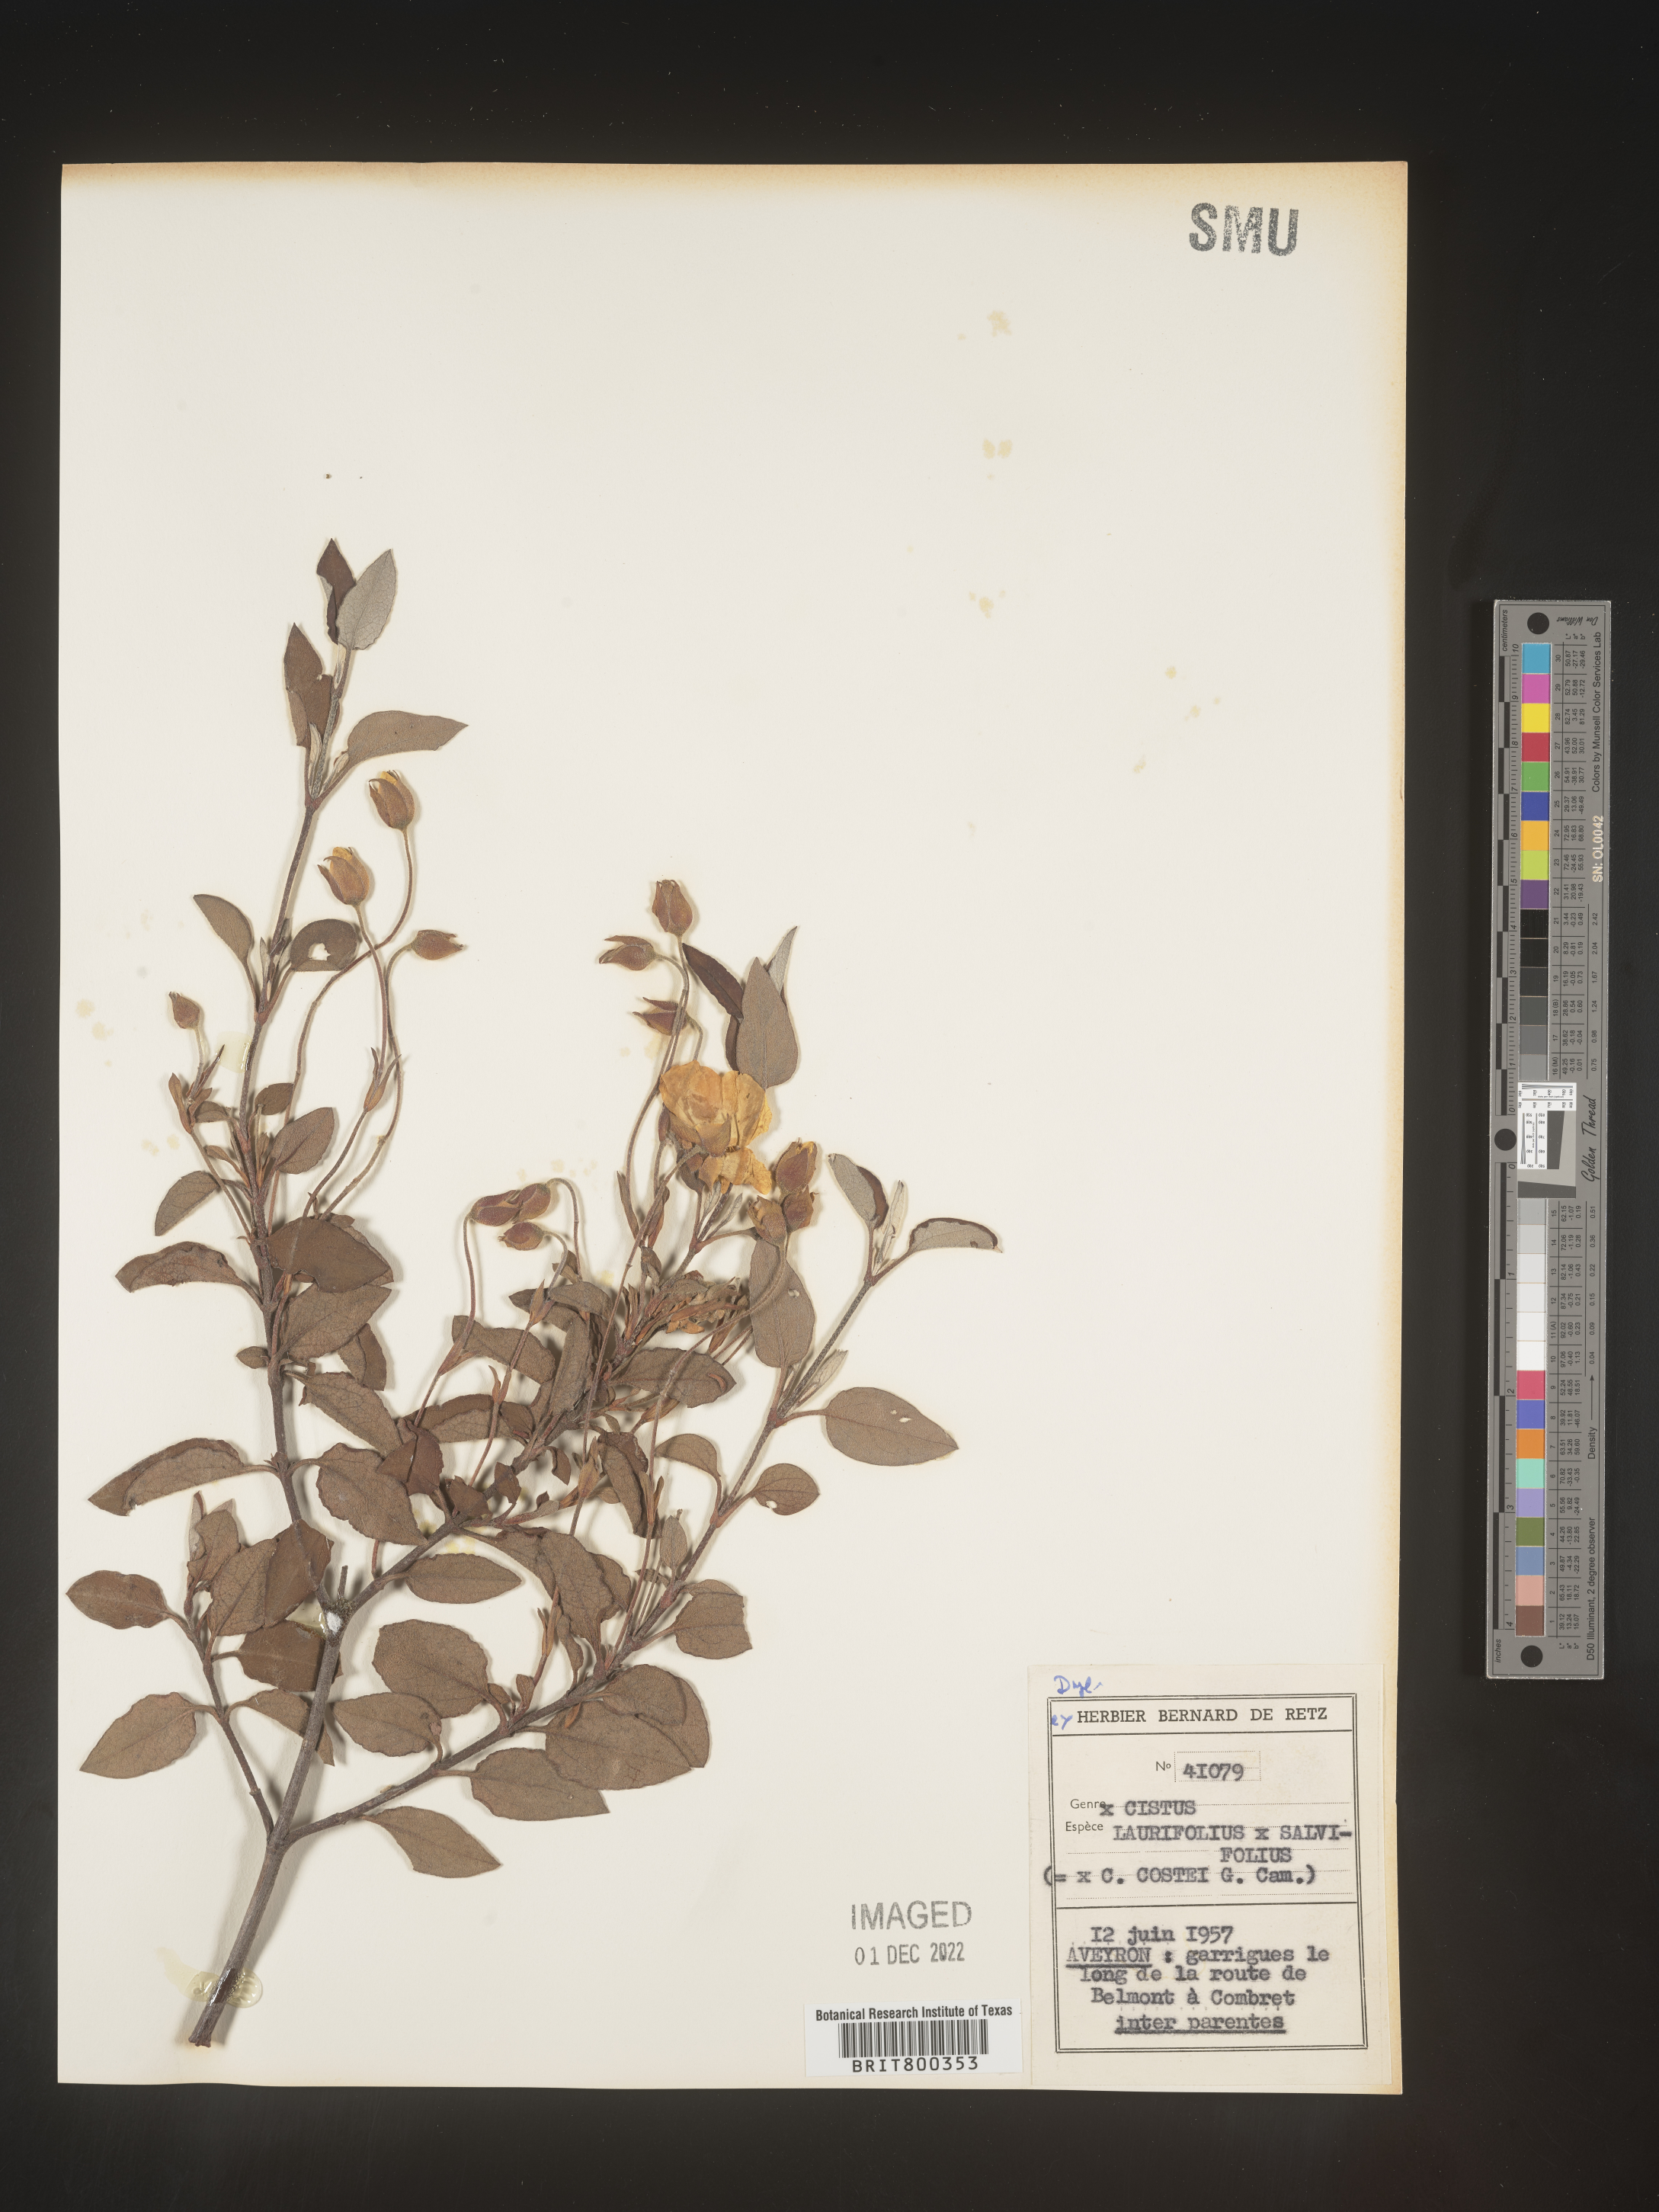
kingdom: Plantae
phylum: Tracheophyta
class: Magnoliopsida
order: Malvales
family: Cistaceae
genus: Cistus
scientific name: Cistus
